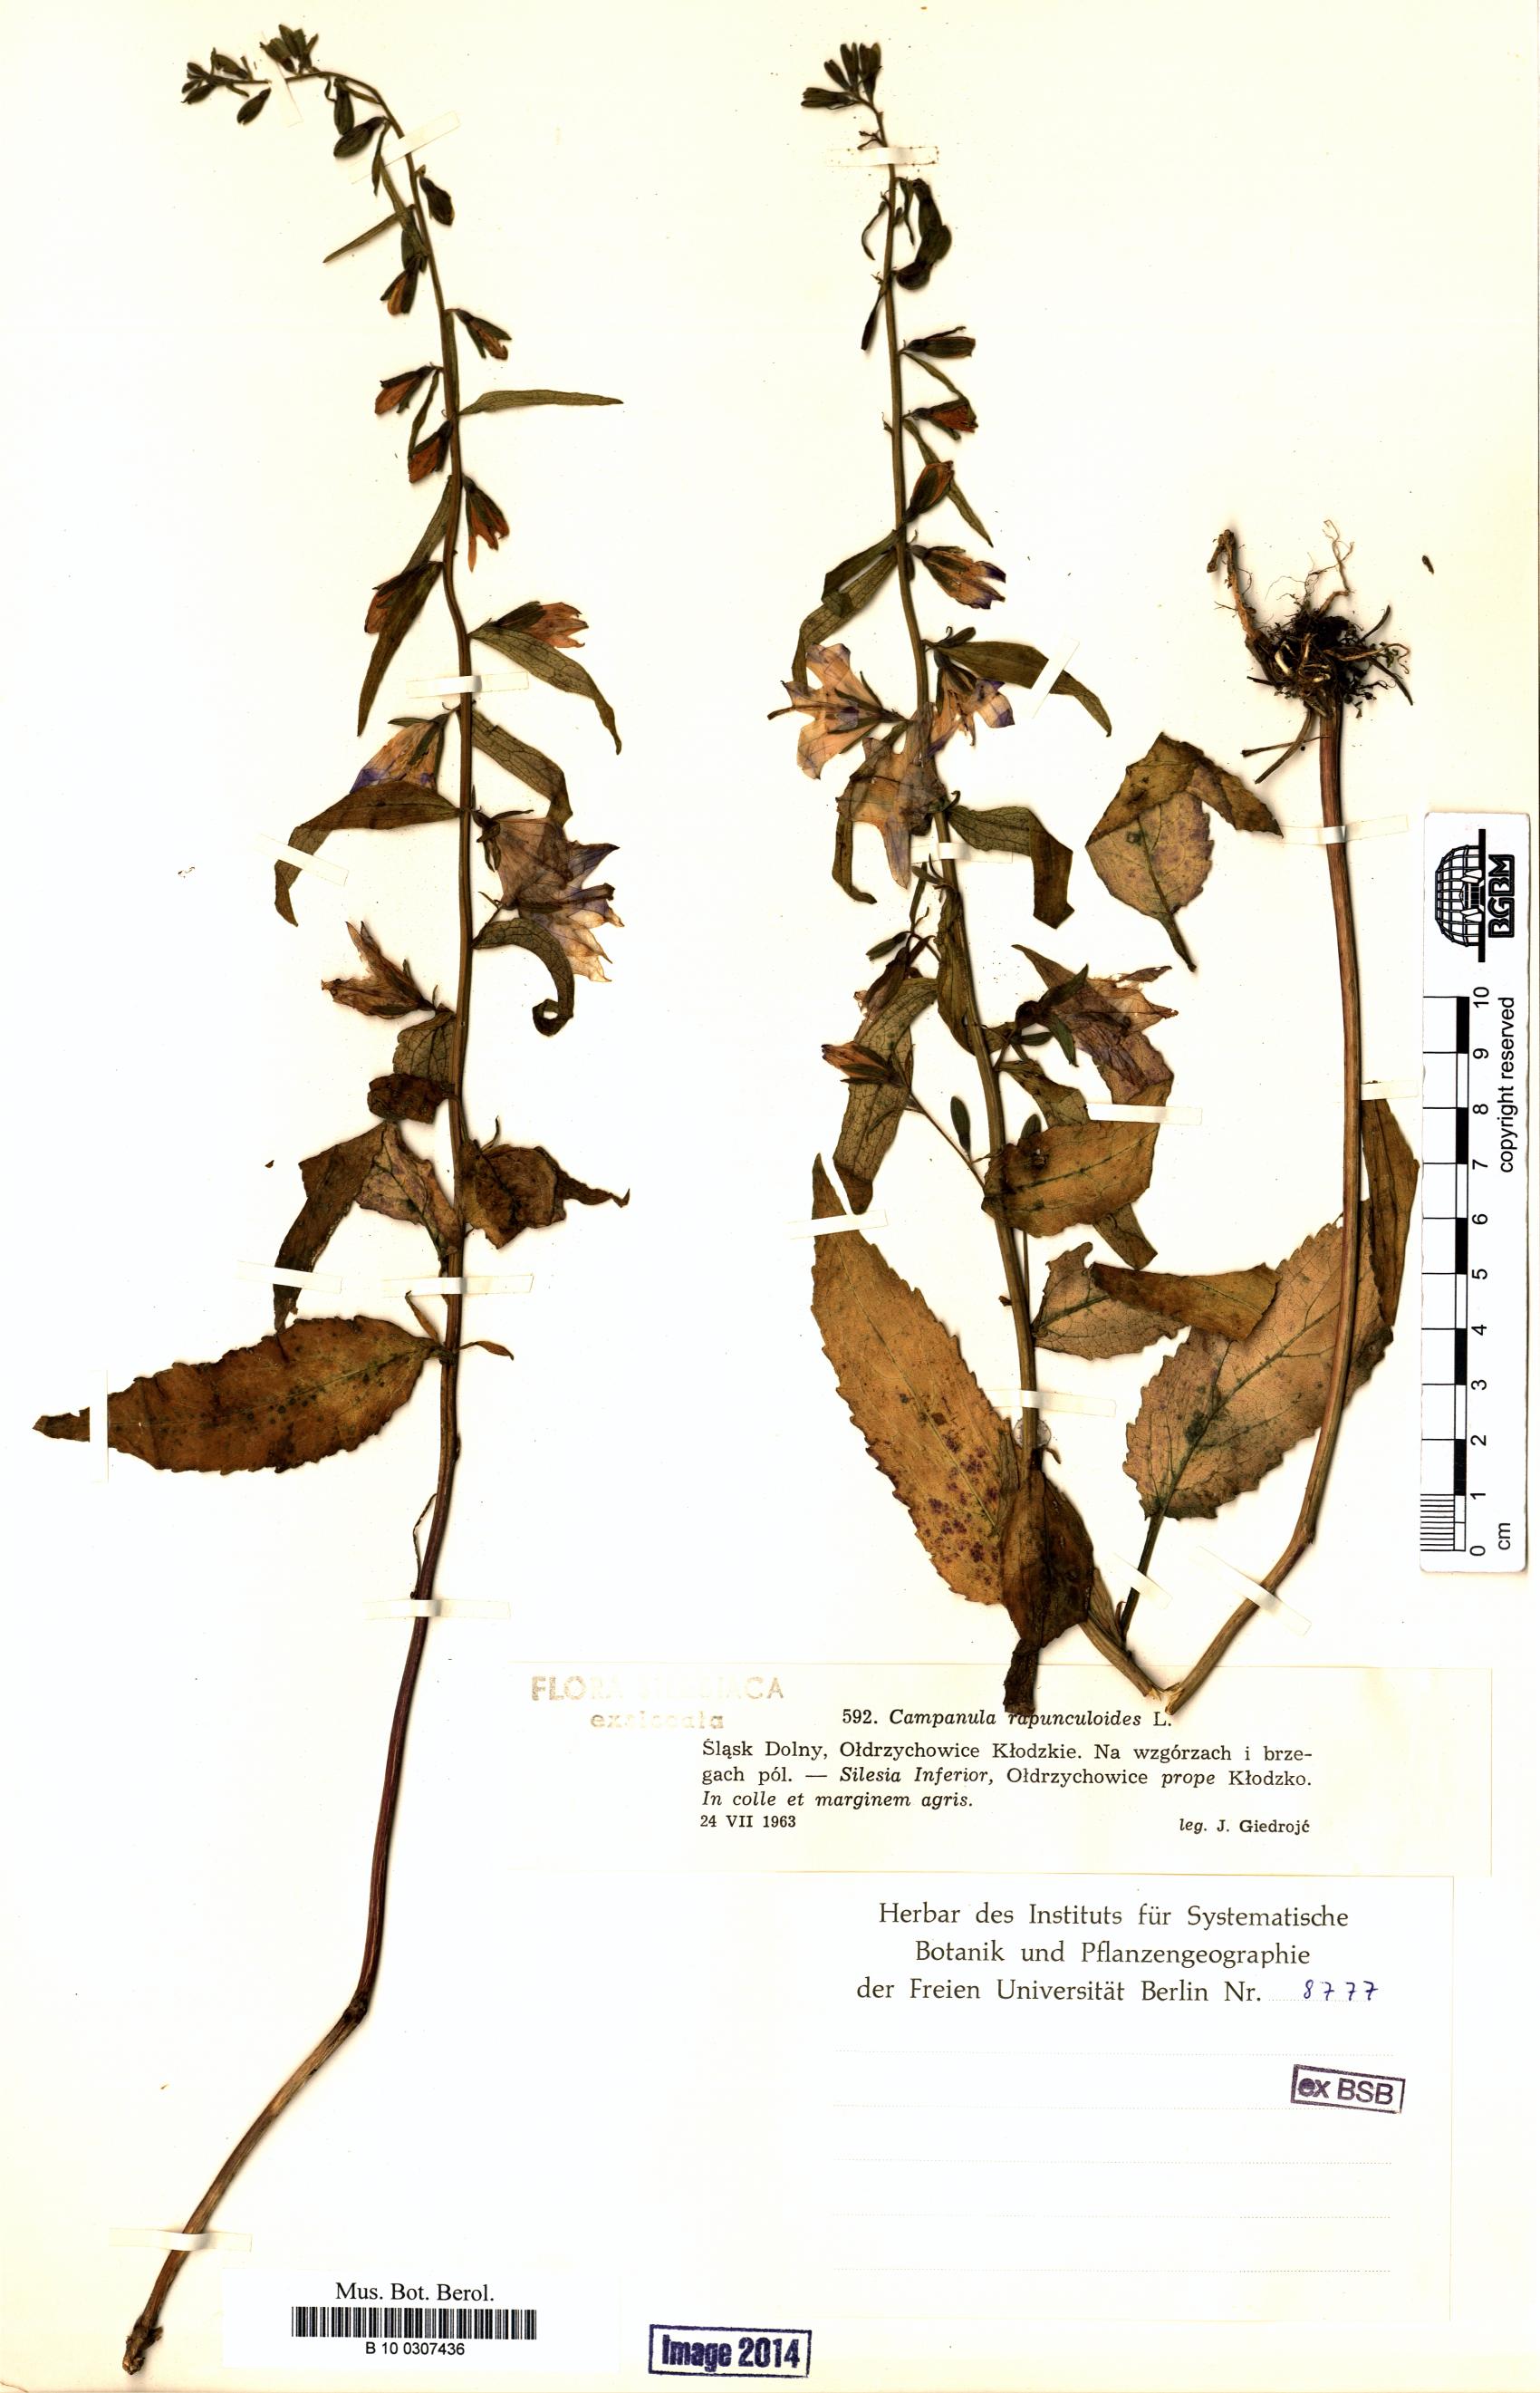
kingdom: Plantae
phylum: Tracheophyta
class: Magnoliopsida
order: Asterales
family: Campanulaceae
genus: Campanula
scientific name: Campanula rapunculoides
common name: Creeping bellflower
